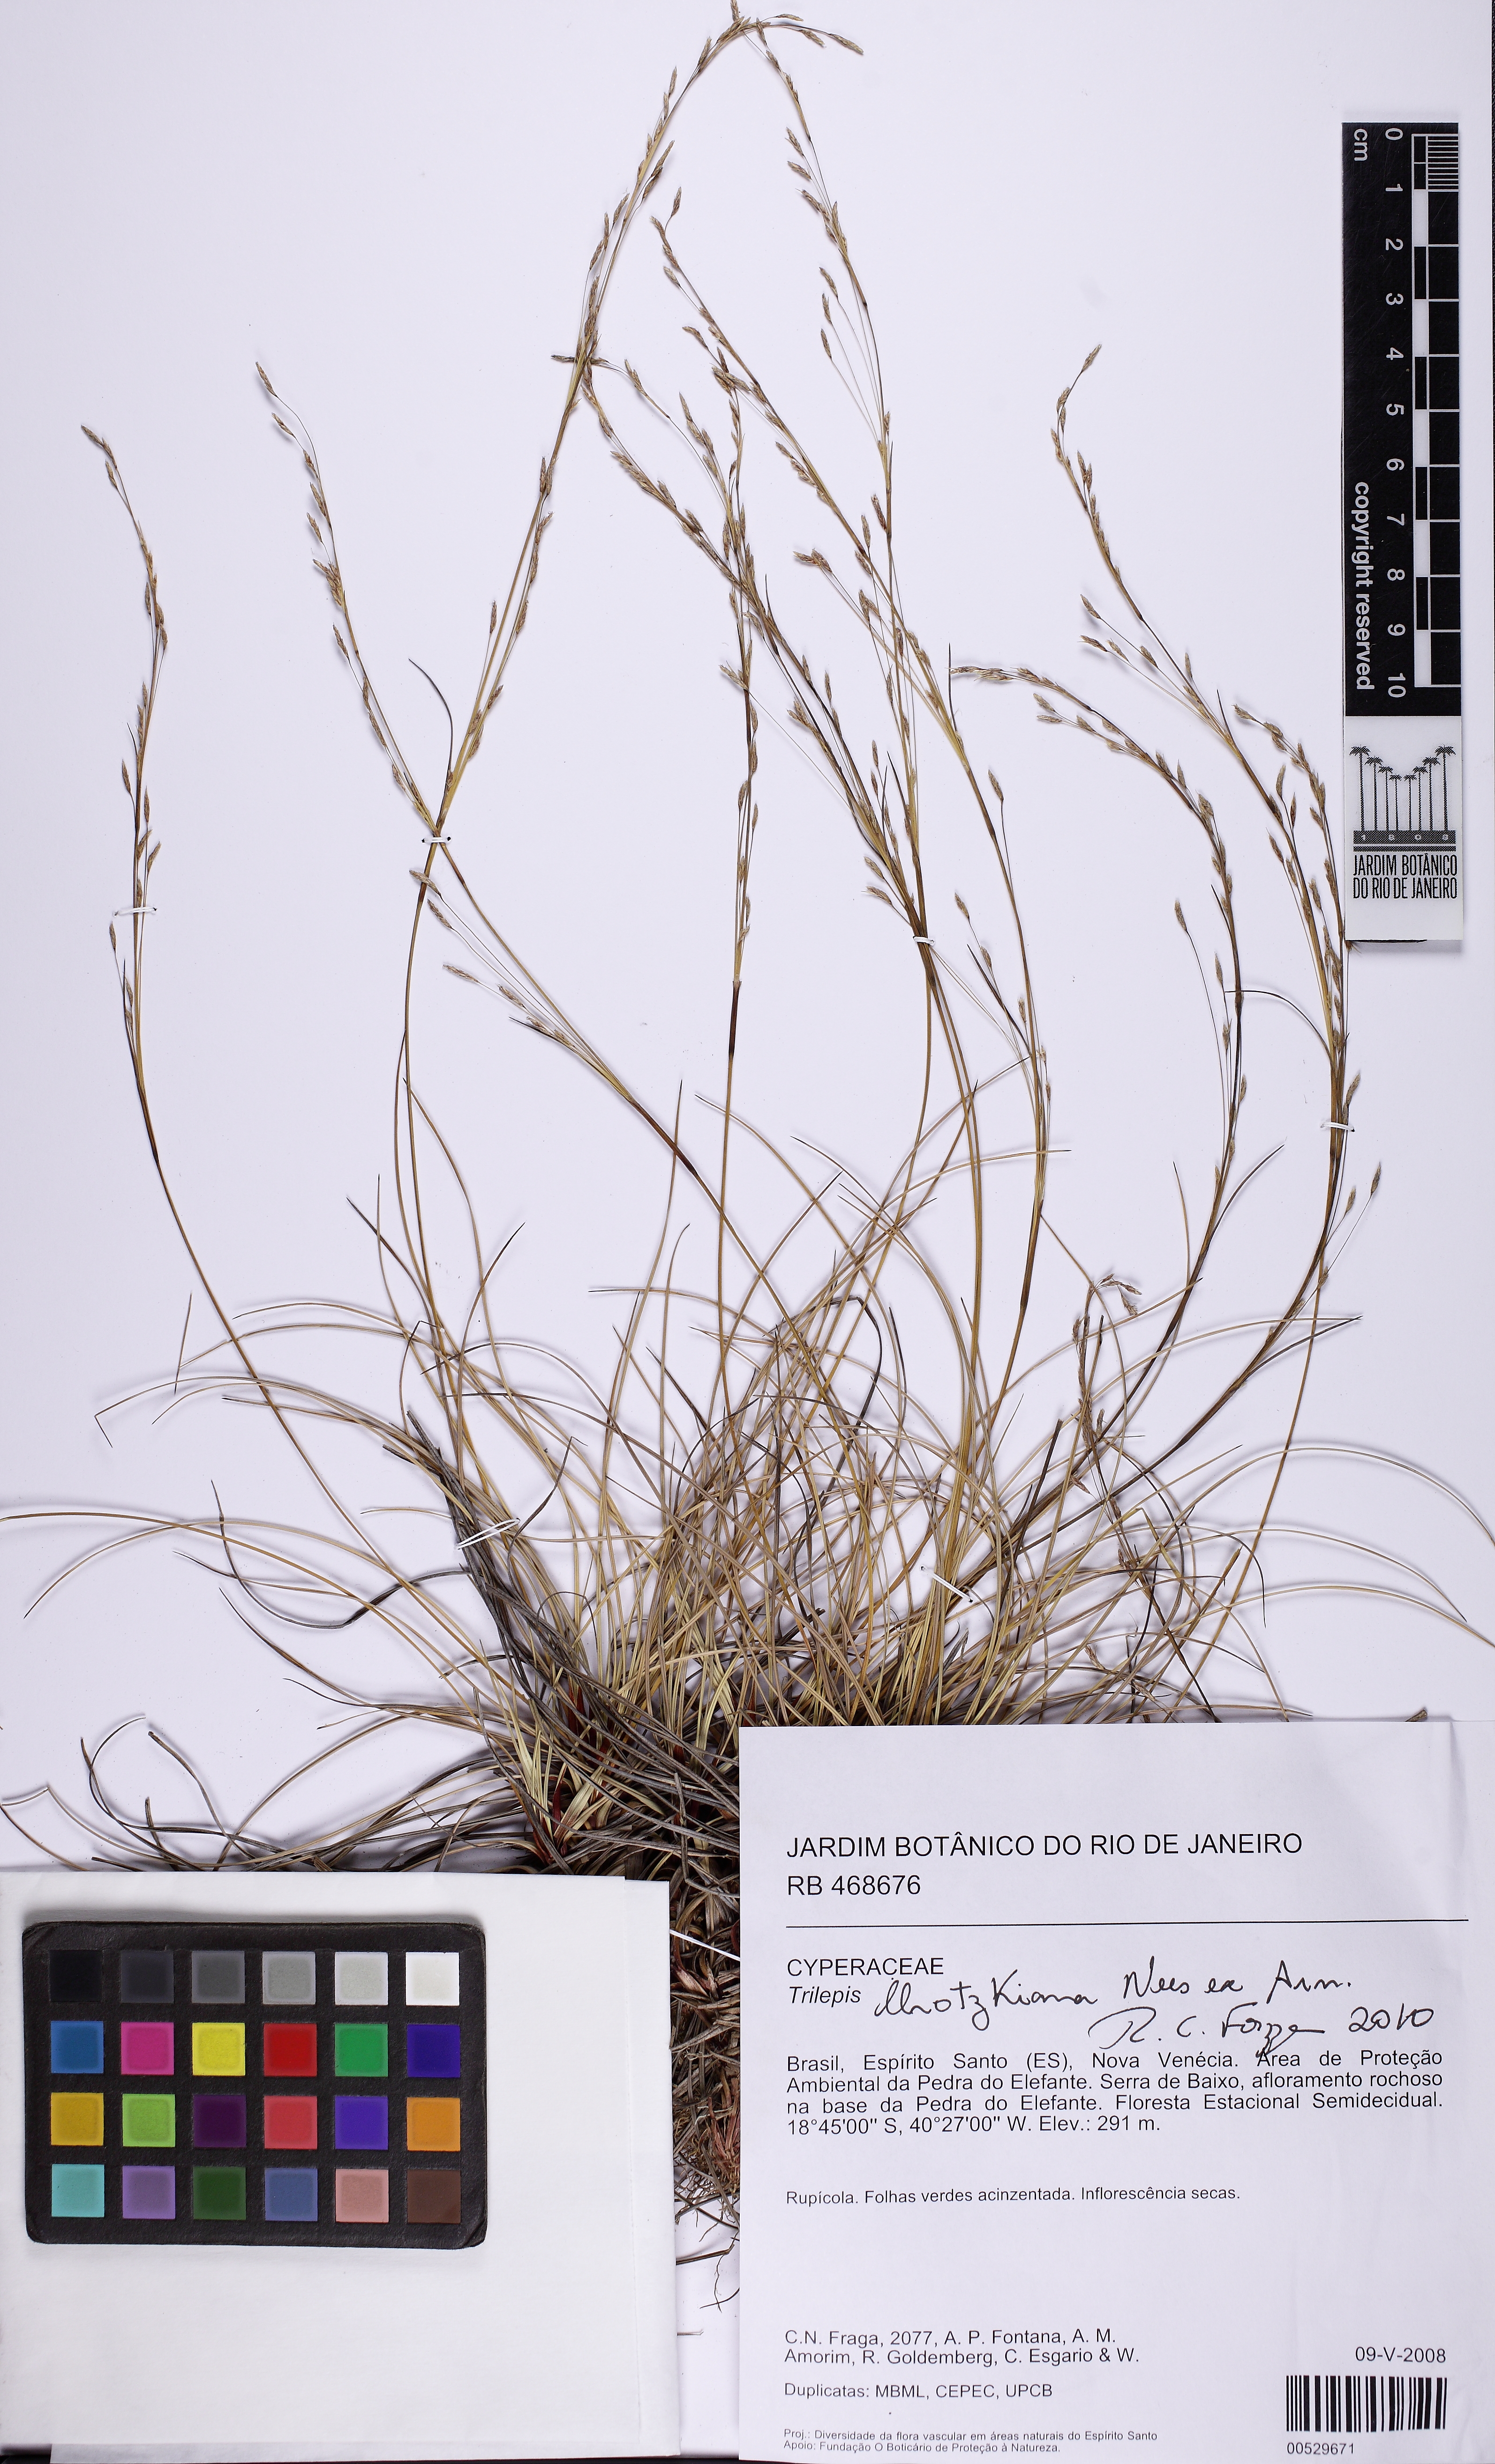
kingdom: Plantae
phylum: Tracheophyta
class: Liliopsida
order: Poales
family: Cyperaceae
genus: Trilepis
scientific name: Trilepis lhotzkiana
